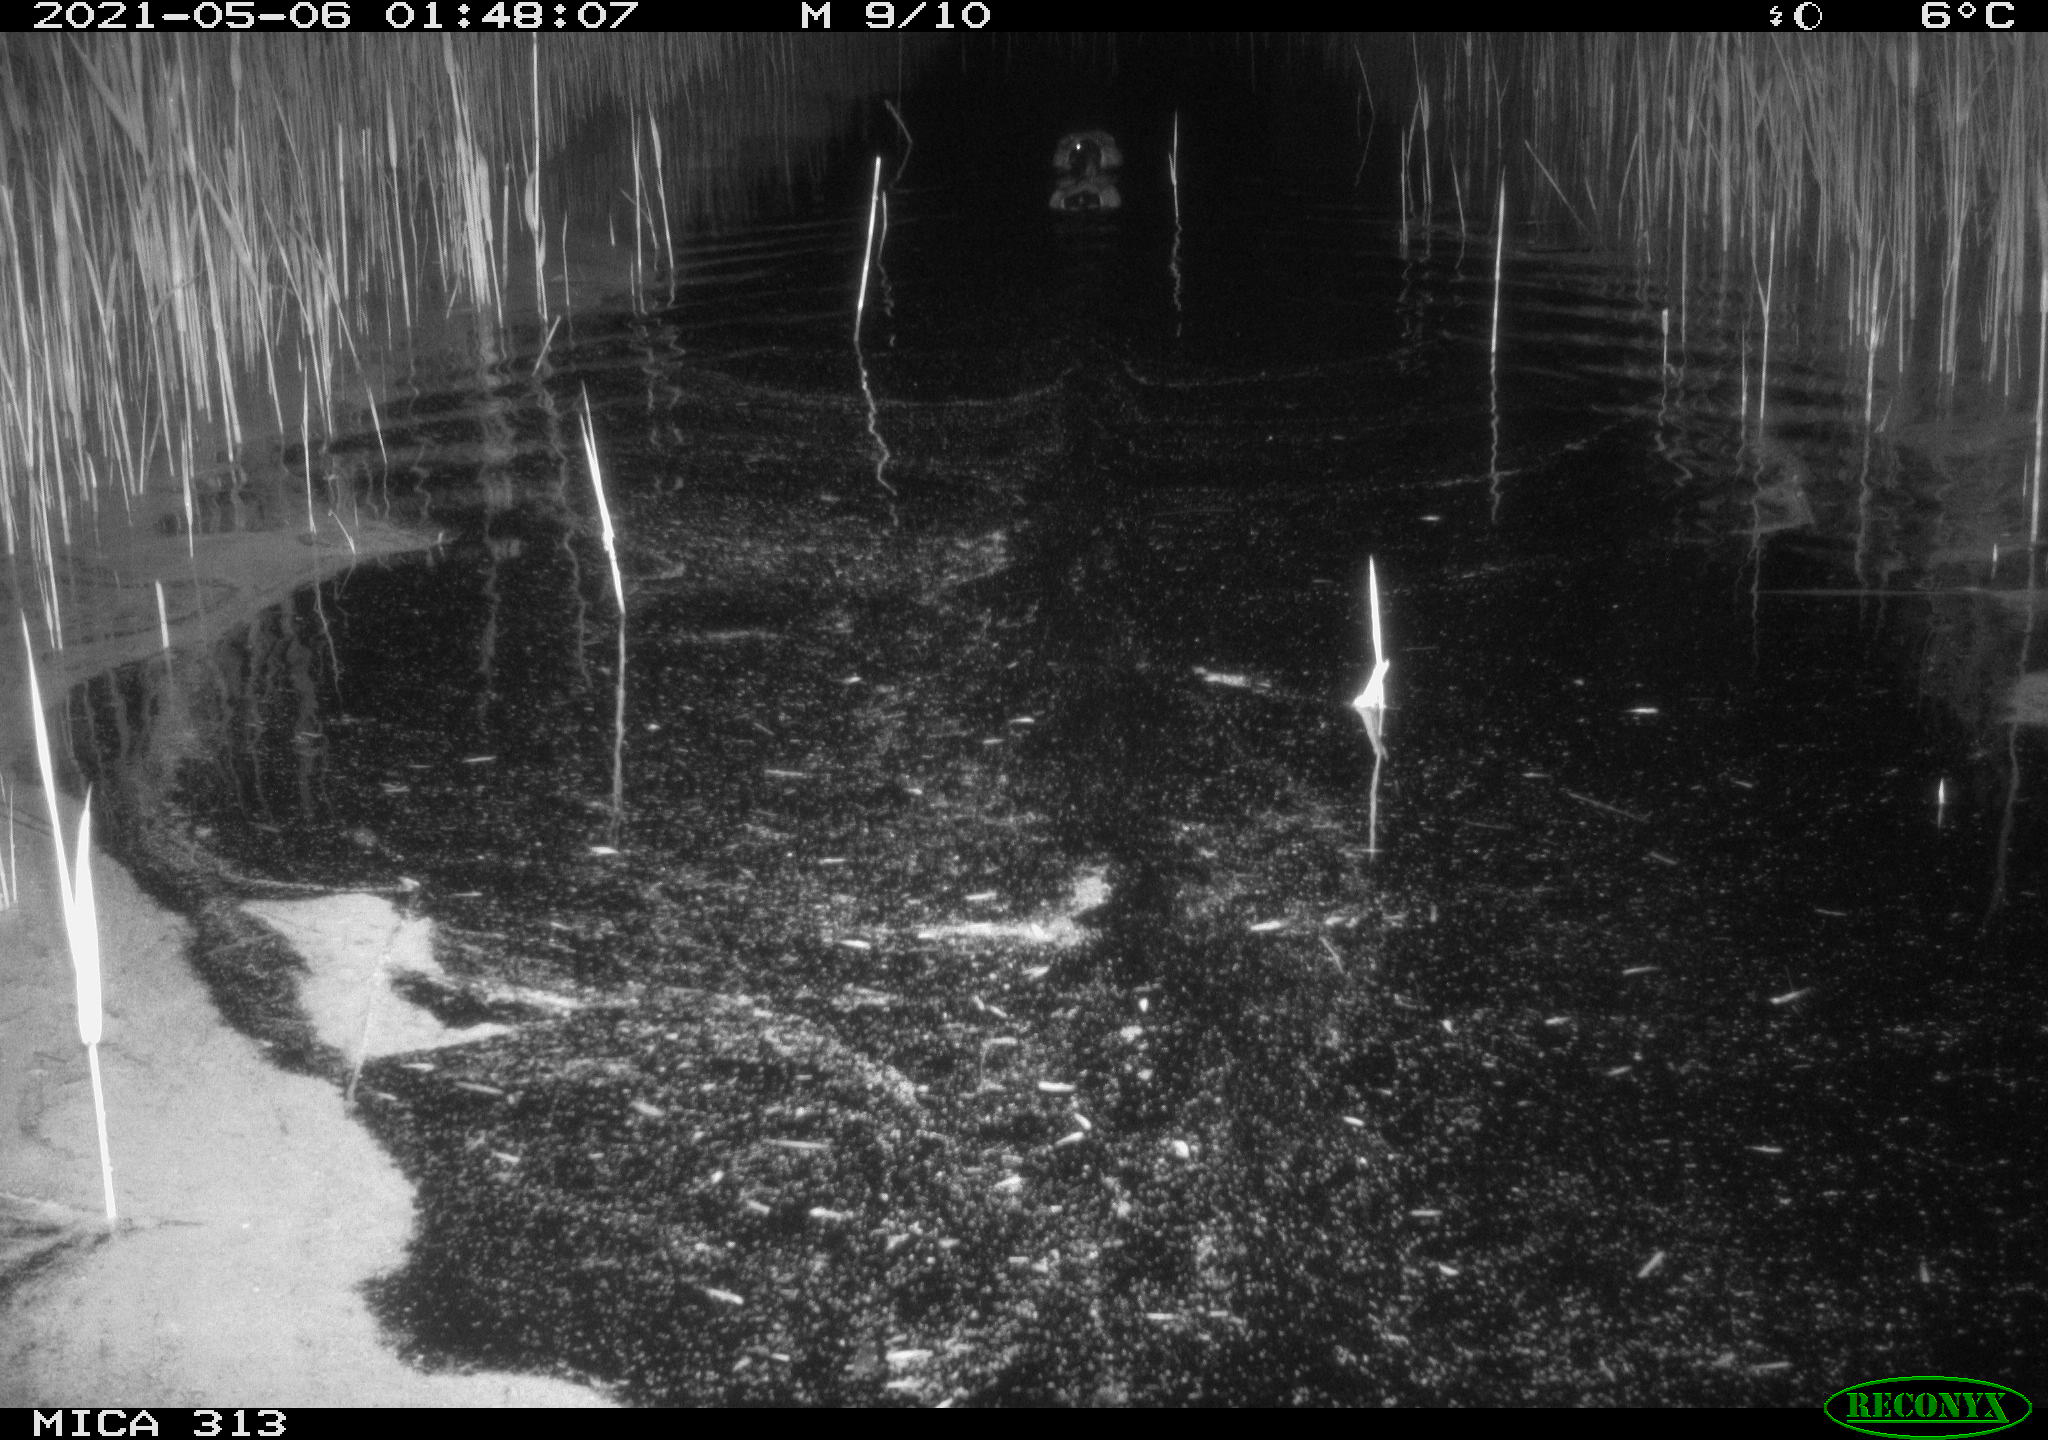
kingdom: Animalia
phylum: Chordata
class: Aves
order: Anseriformes
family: Anatidae
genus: Anas
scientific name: Anas platyrhynchos
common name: Mallard
